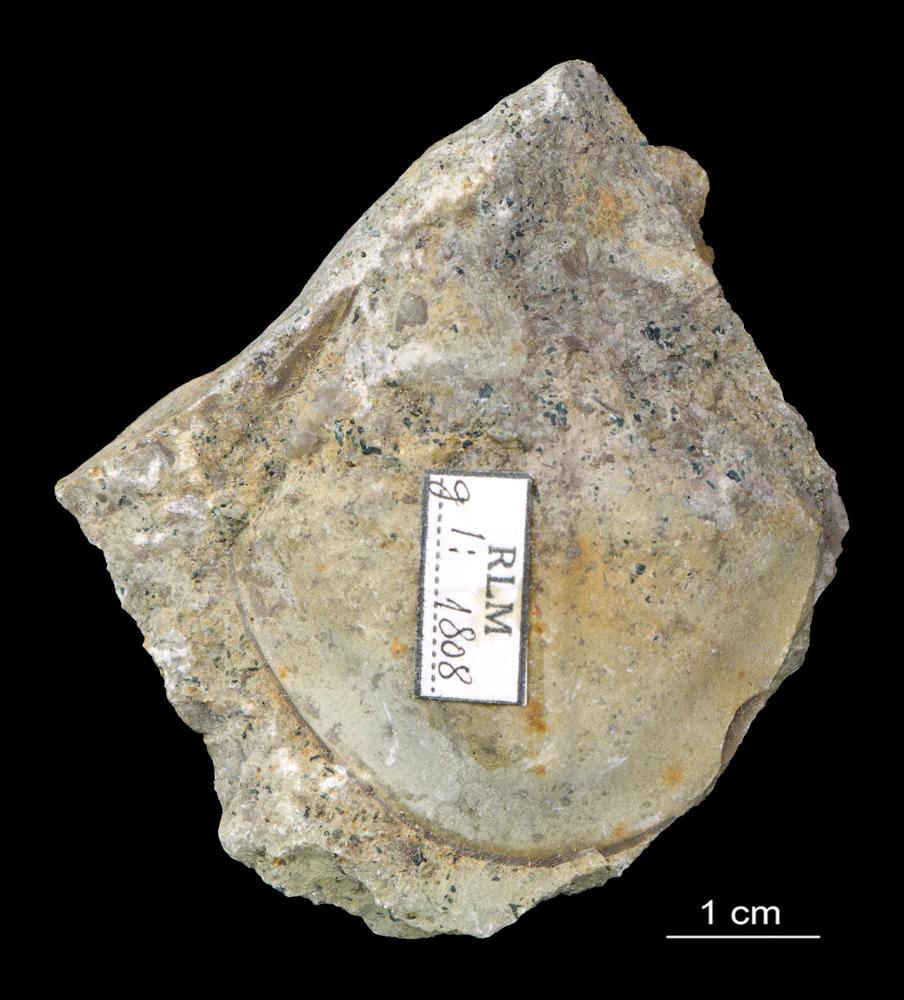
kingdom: Animalia
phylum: Arthropoda
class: Trilobita
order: Asaphida
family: Asaphidae
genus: Ptychopyge
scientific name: Ptychopyge
